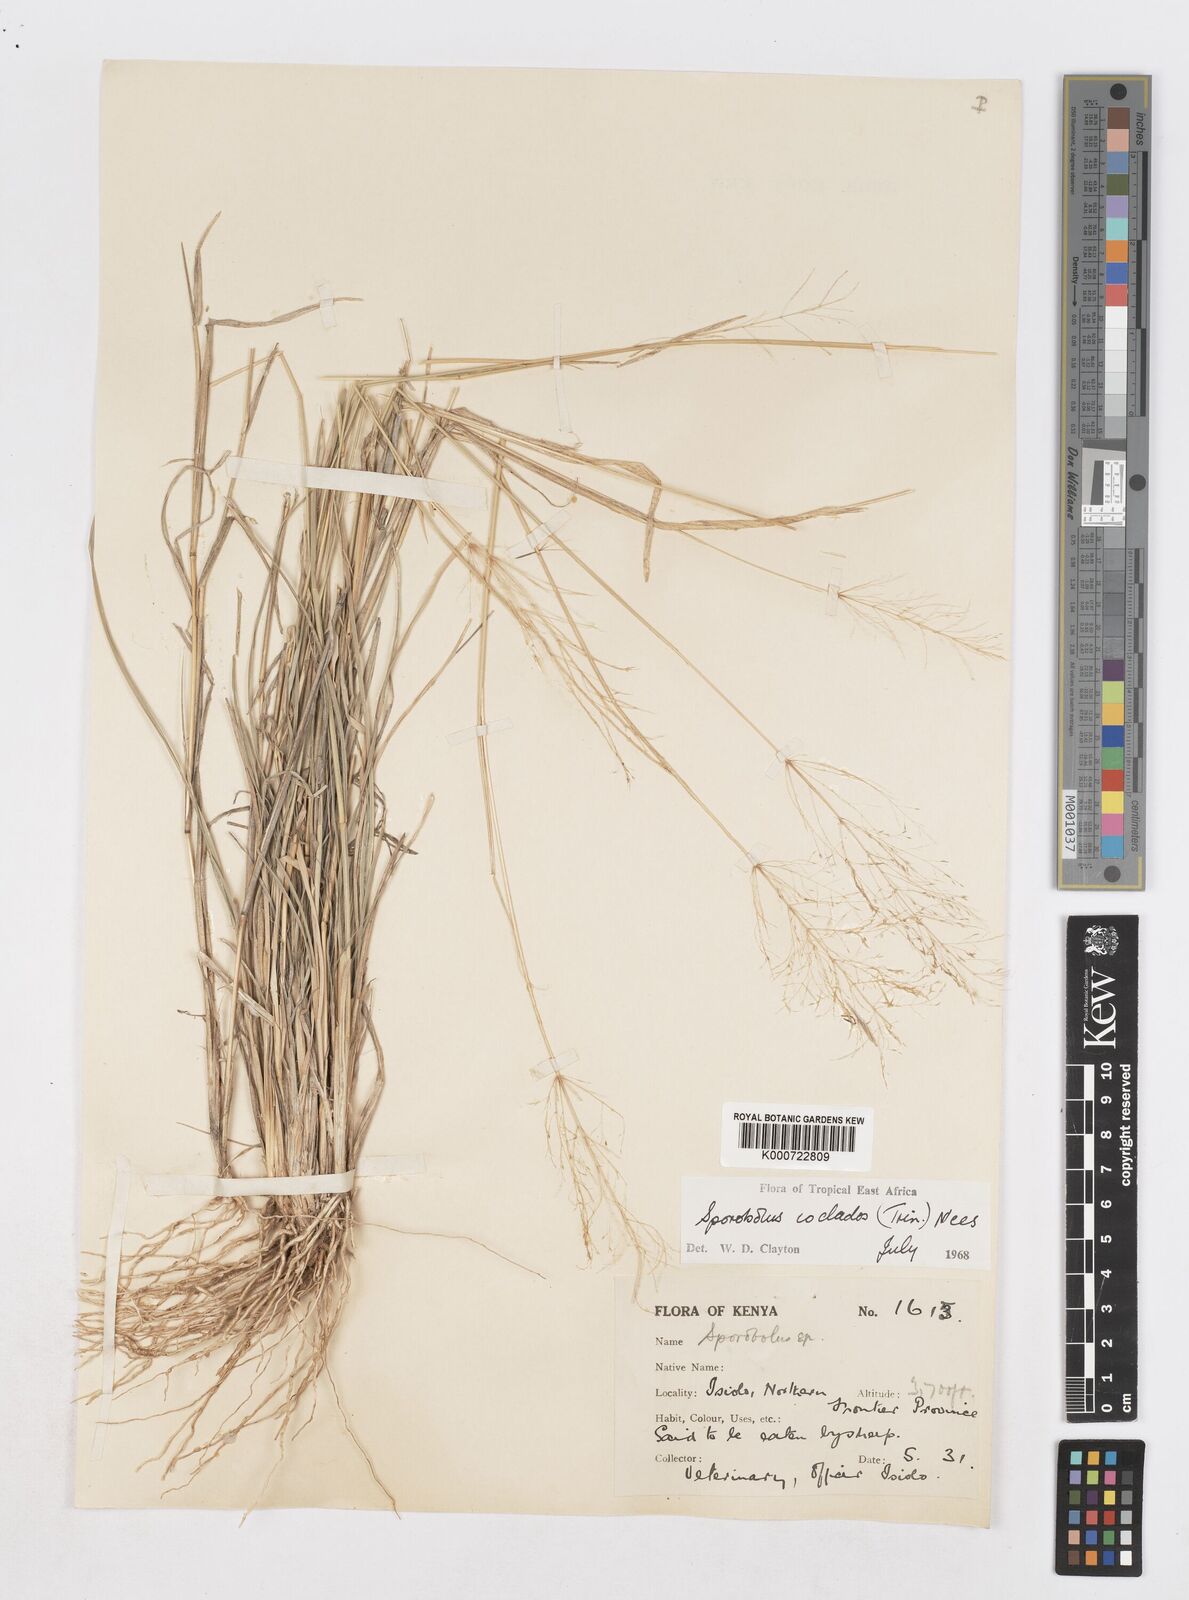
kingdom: Plantae
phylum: Tracheophyta
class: Liliopsida
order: Poales
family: Poaceae
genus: Sporobolus
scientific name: Sporobolus ioclados
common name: Pan dropseed
